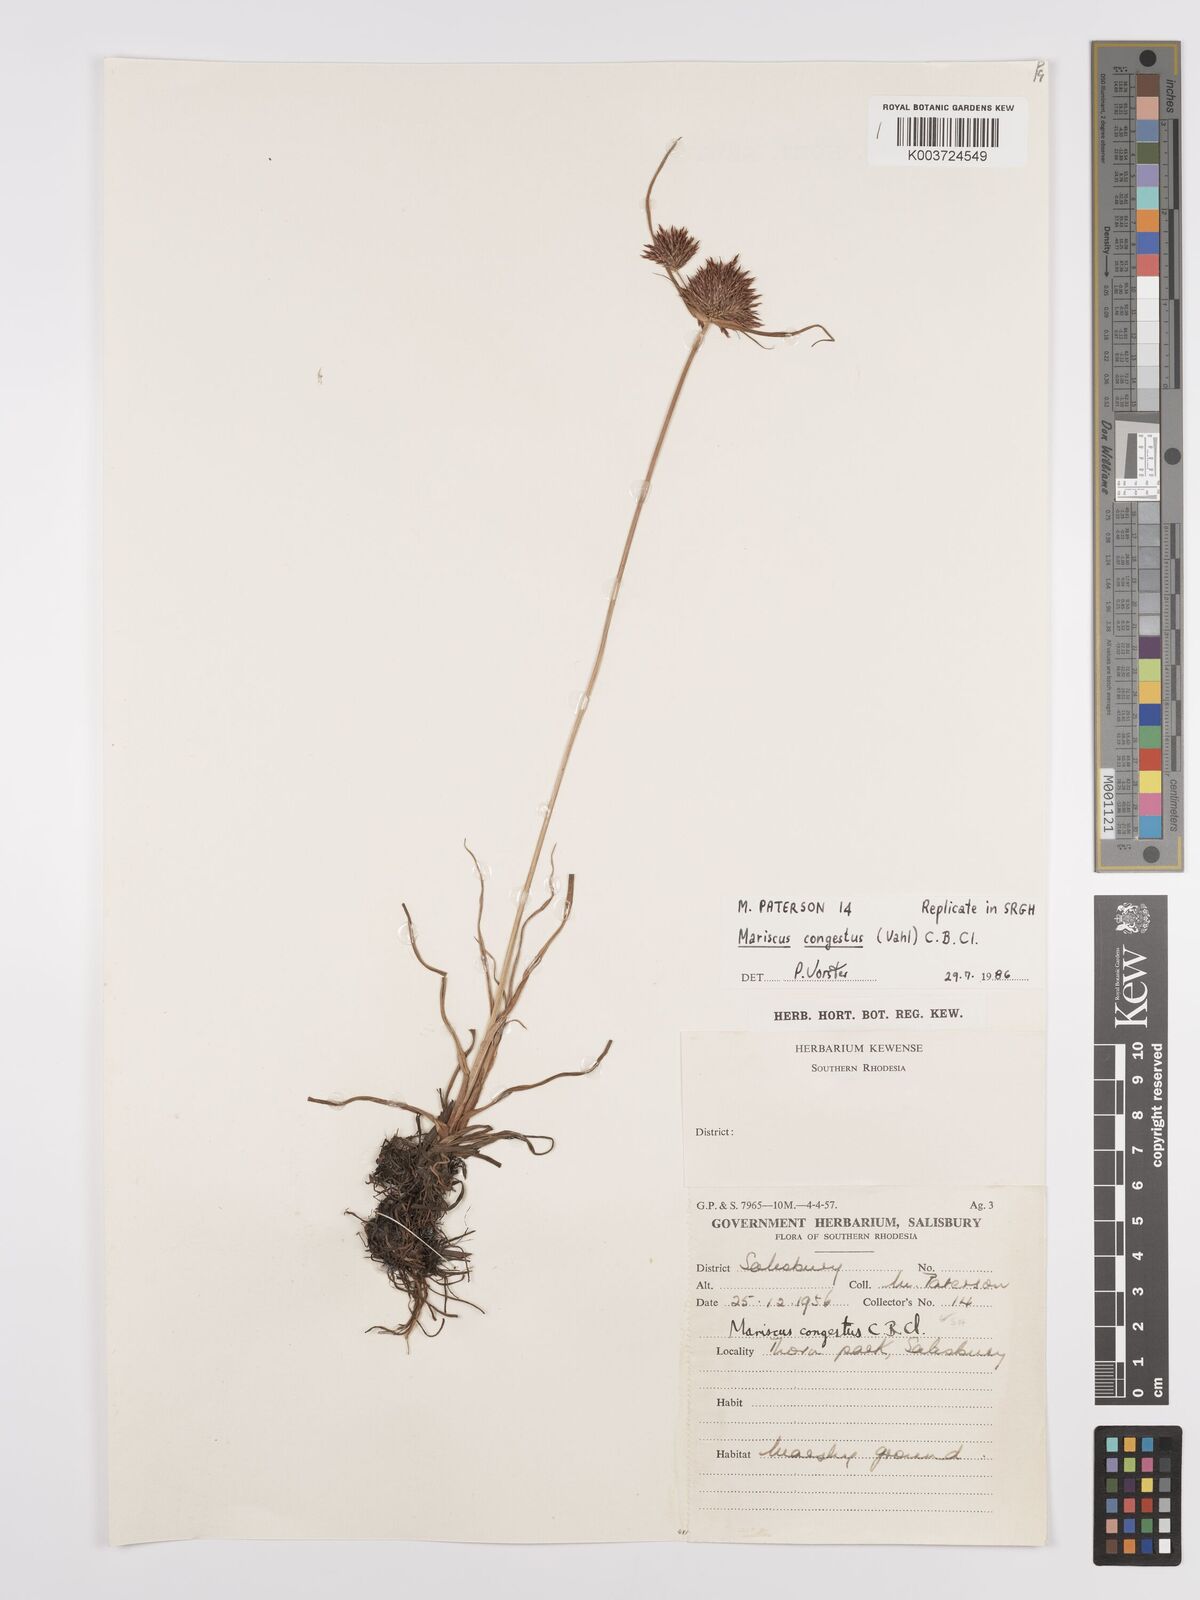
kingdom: Plantae
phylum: Tracheophyta
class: Liliopsida
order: Poales
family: Cyperaceae
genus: Cyperus
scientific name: Cyperus congestus
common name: Dense flat sedge
